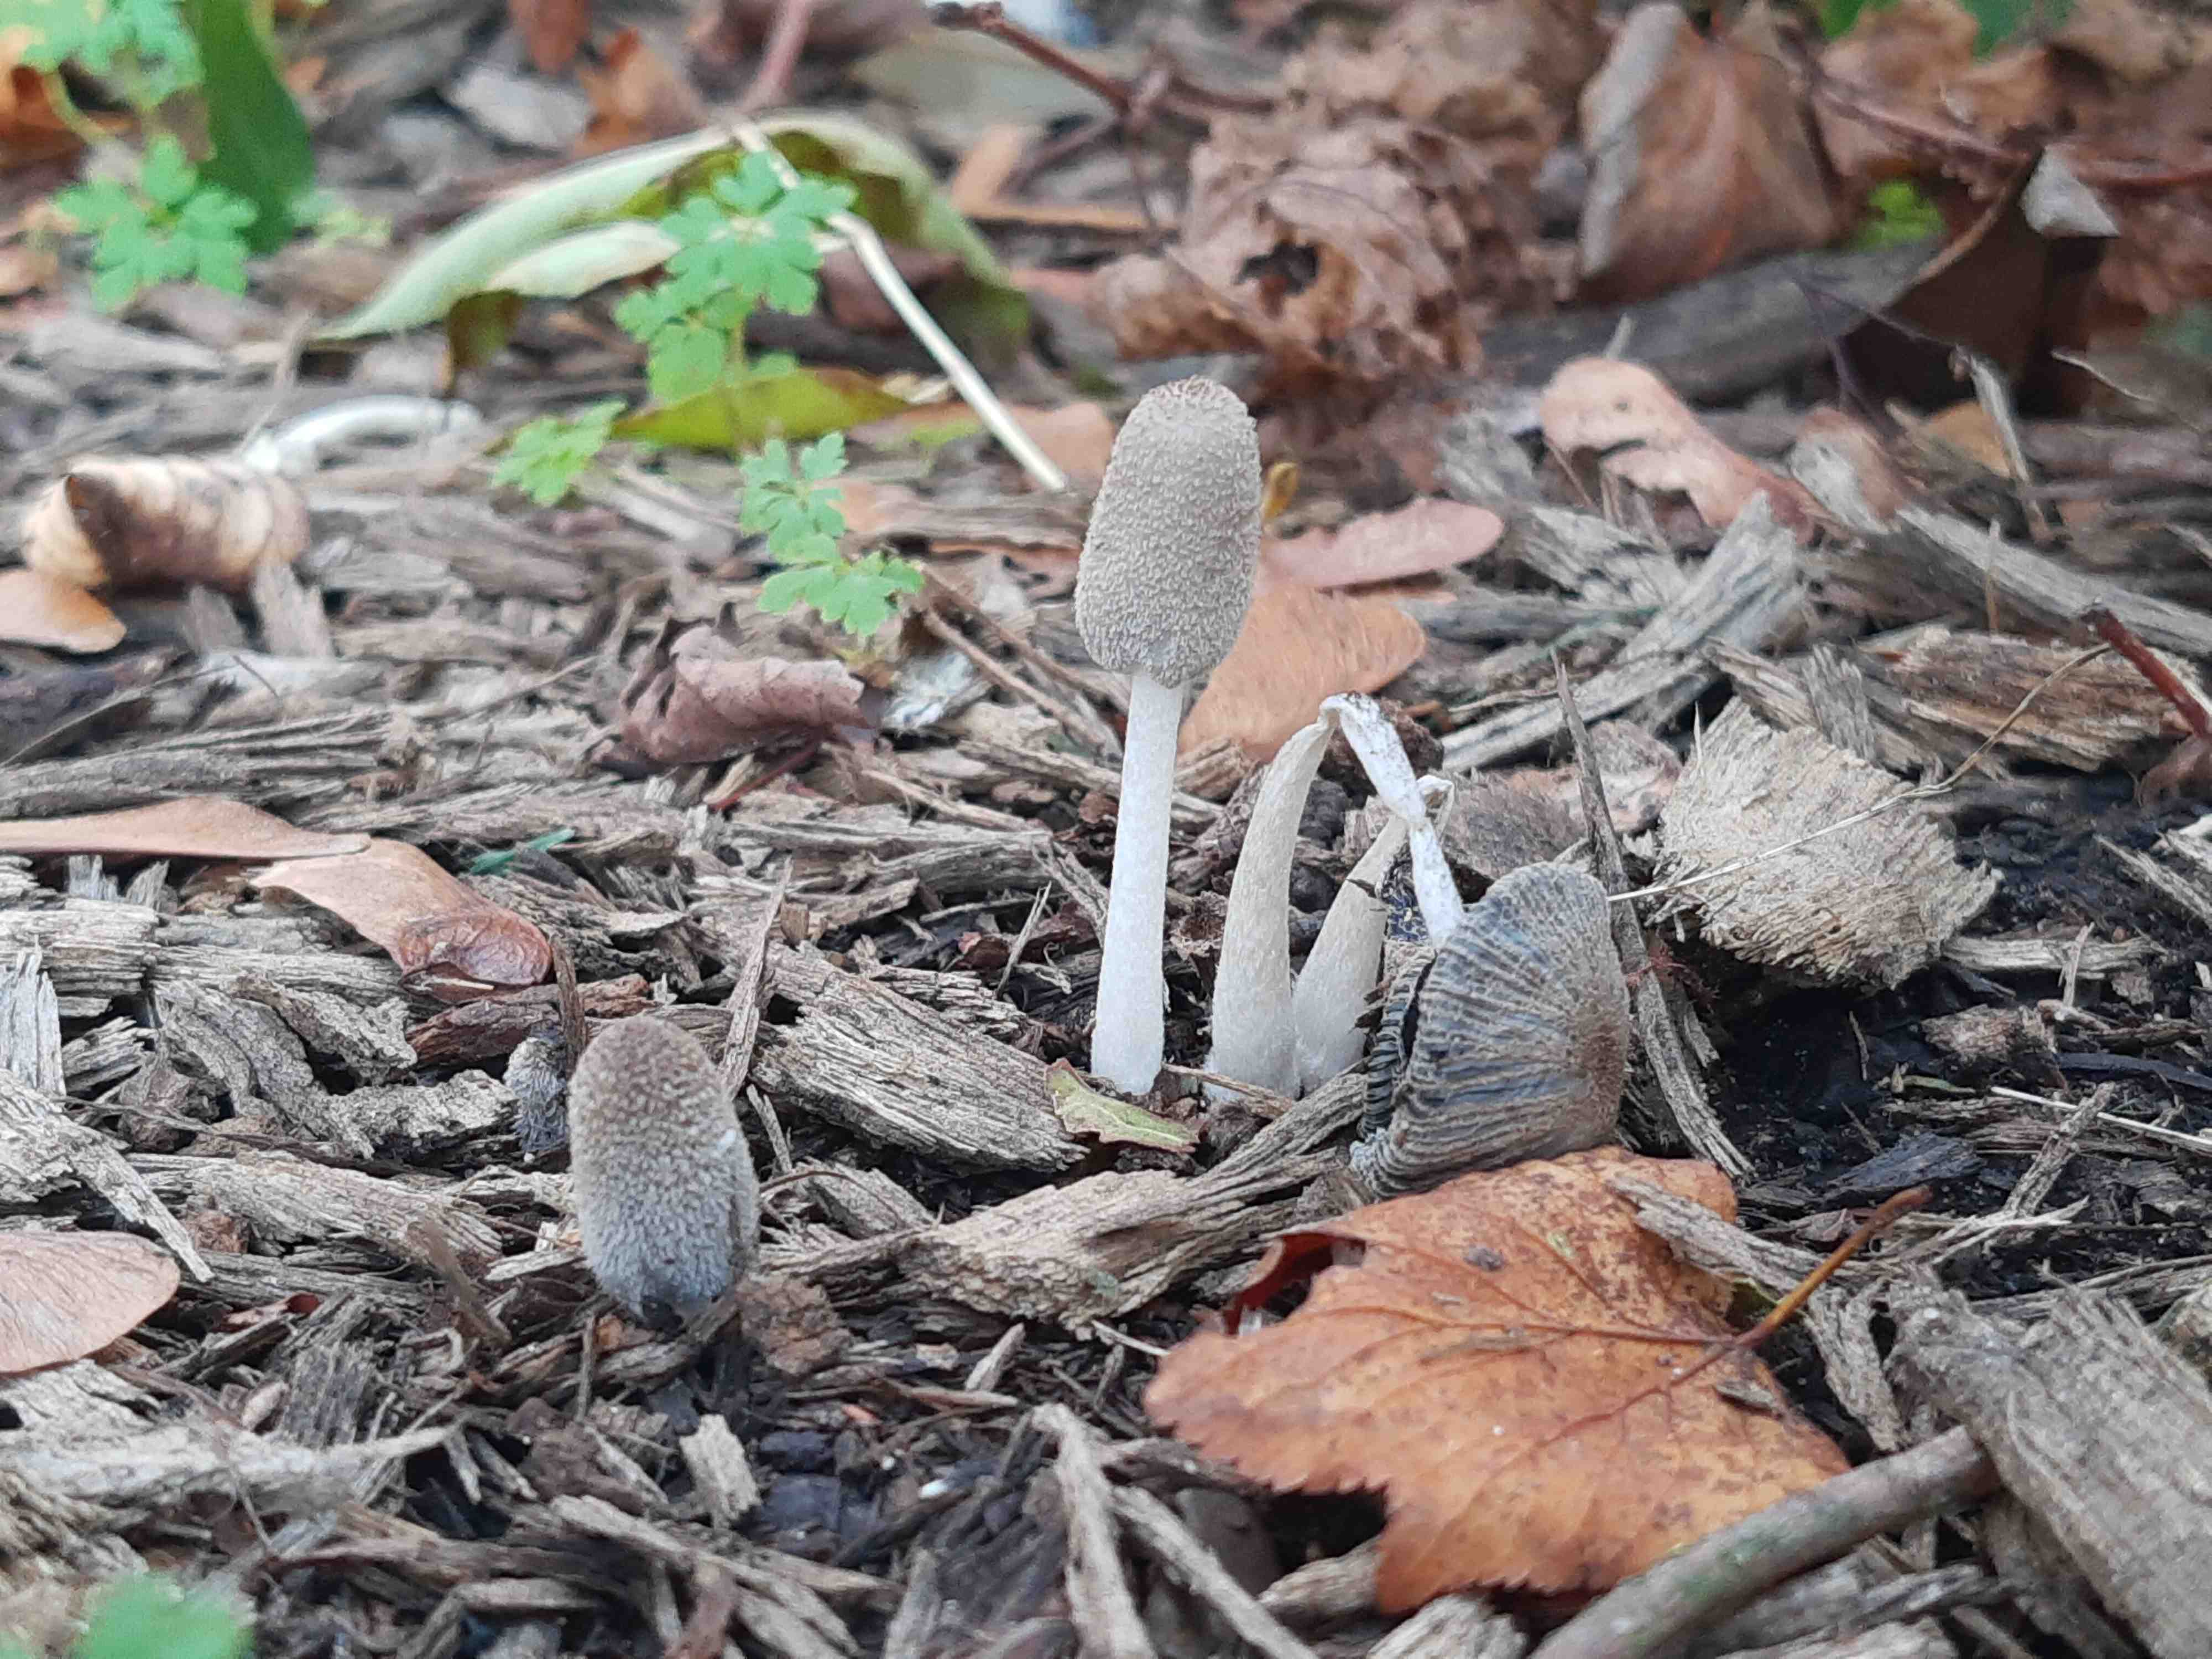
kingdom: Fungi
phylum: Basidiomycota
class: Agaricomycetes
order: Agaricales
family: Psathyrellaceae
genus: Coprinopsis
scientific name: Coprinopsis lagopus
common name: dunstokket blækhat
